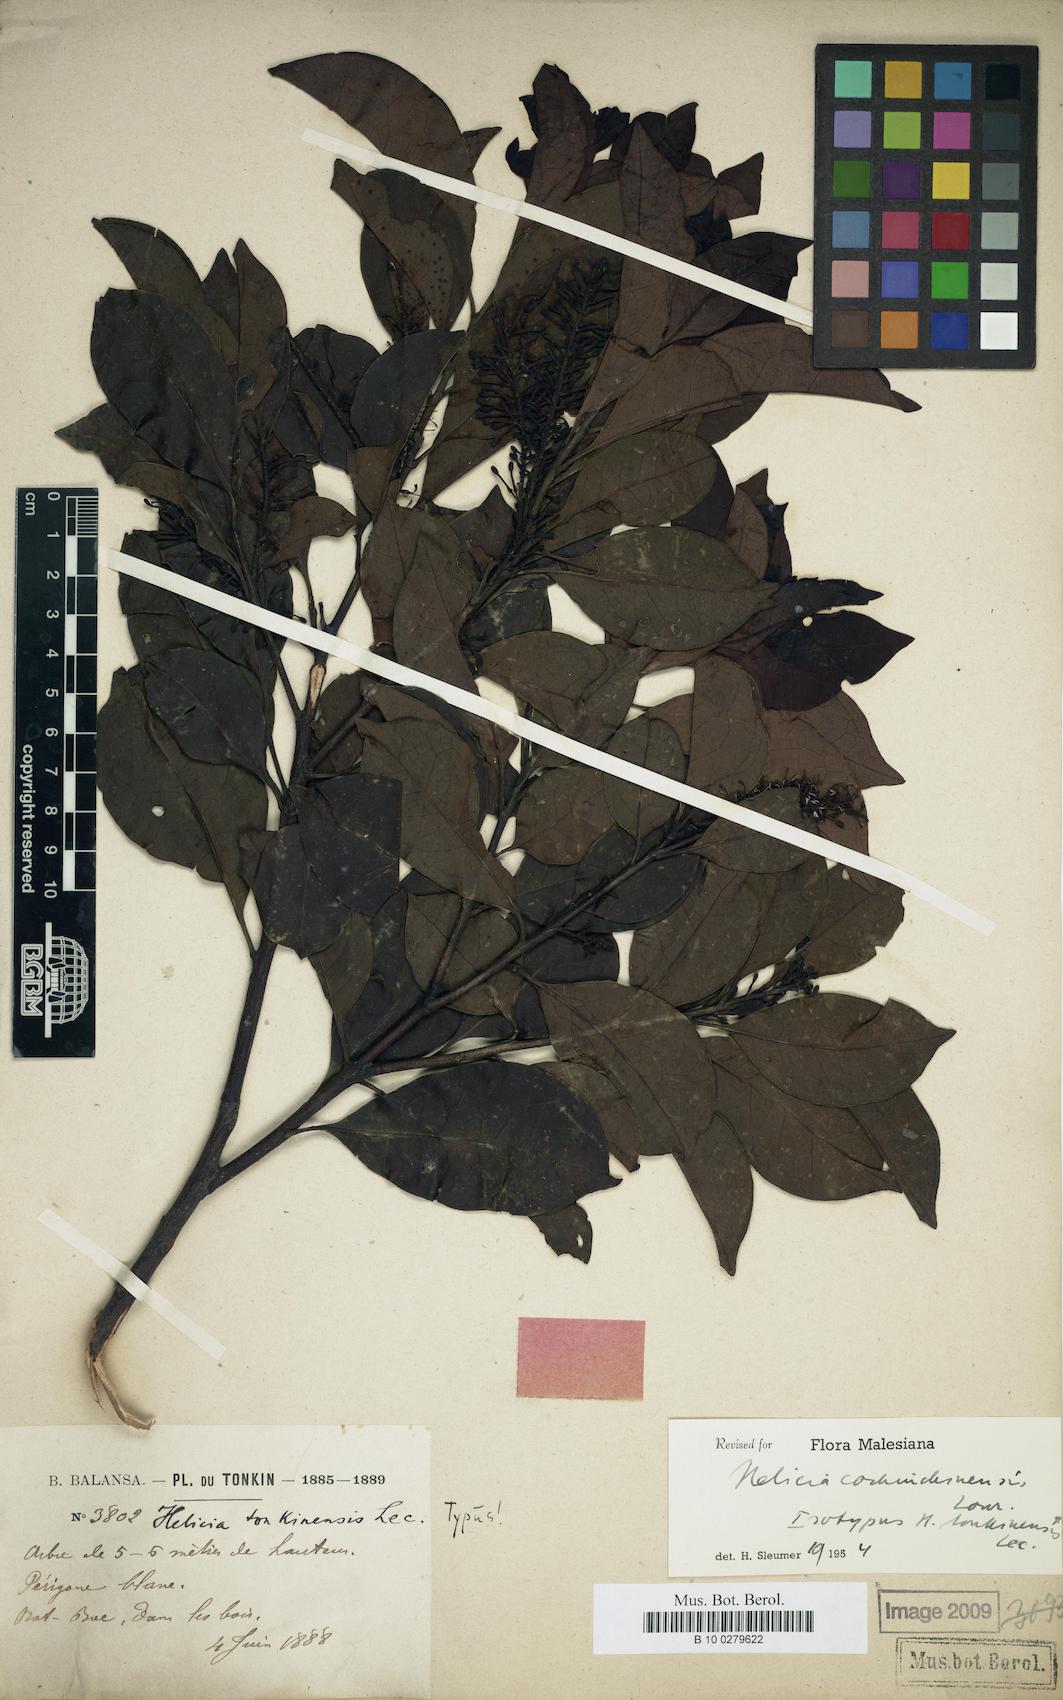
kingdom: Plantae
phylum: Tracheophyta
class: Magnoliopsida
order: Proteales
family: Proteaceae
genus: Helicia
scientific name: Helicia cochinchinensis
